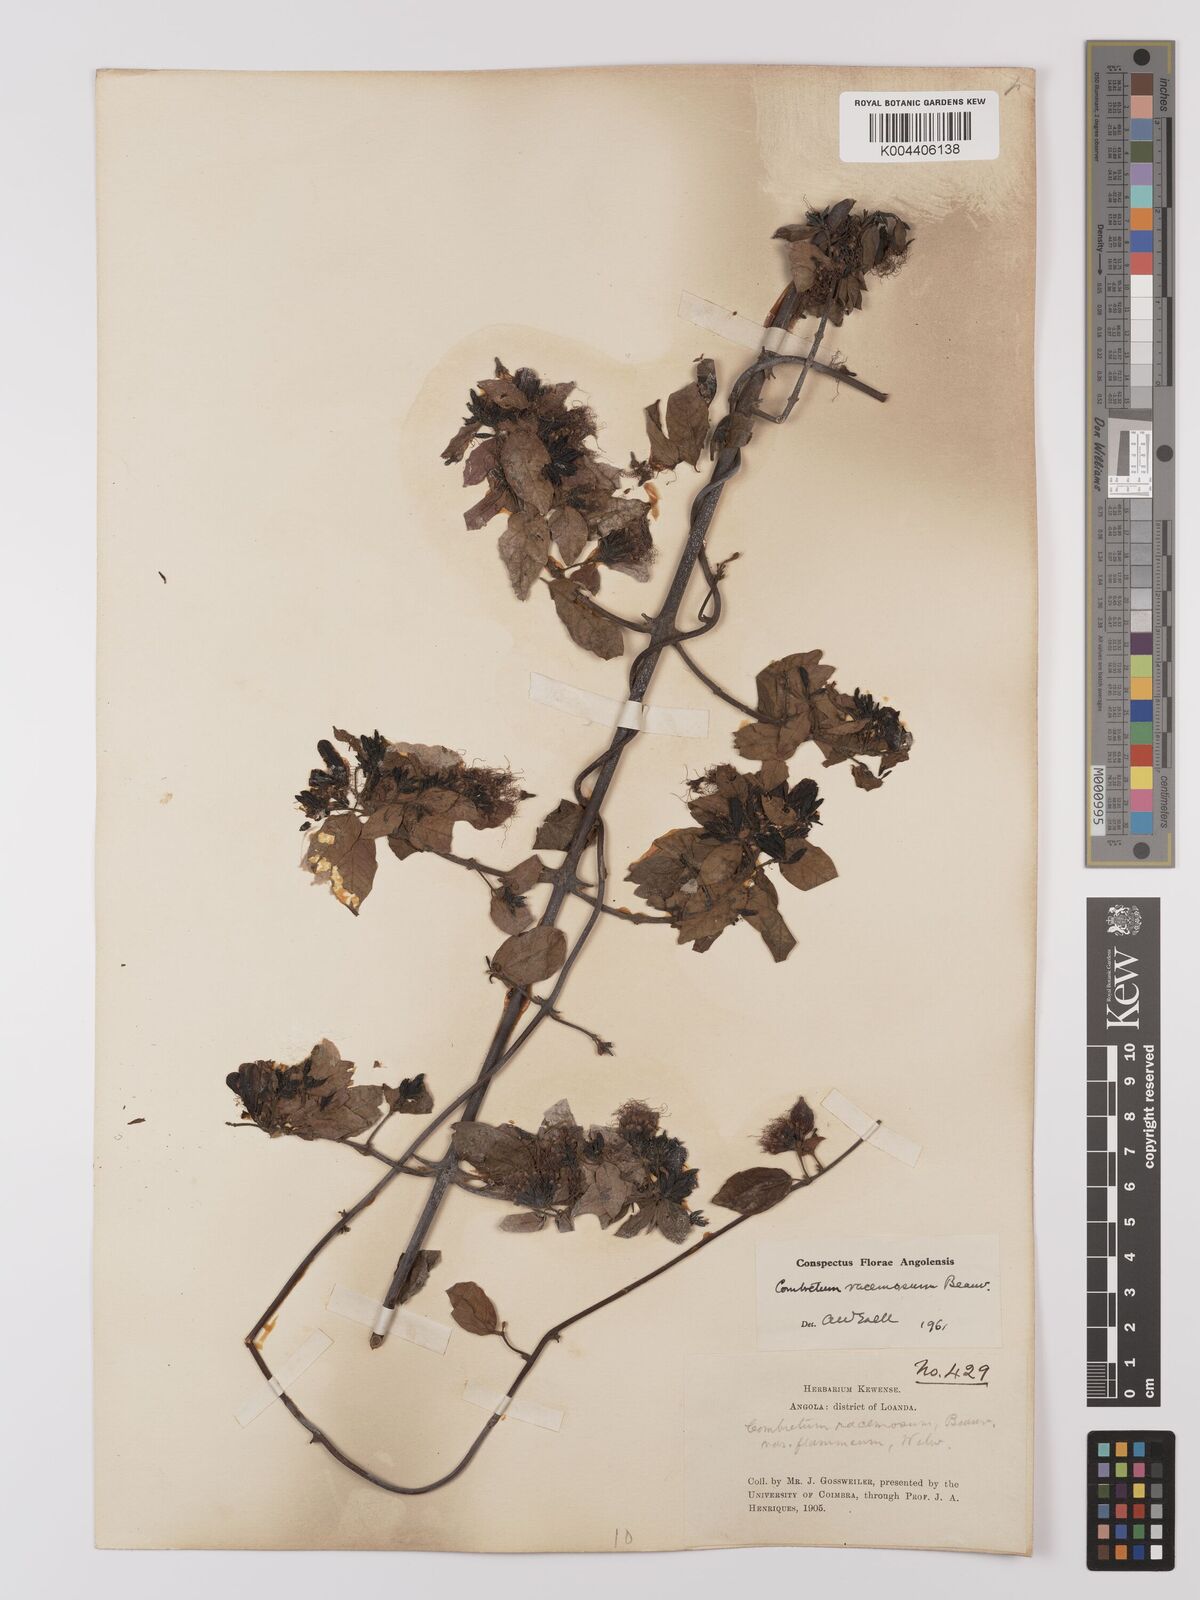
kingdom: Plantae
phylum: Tracheophyta
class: Magnoliopsida
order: Myrtales
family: Combretaceae
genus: Combretum
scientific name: Combretum racemosum
